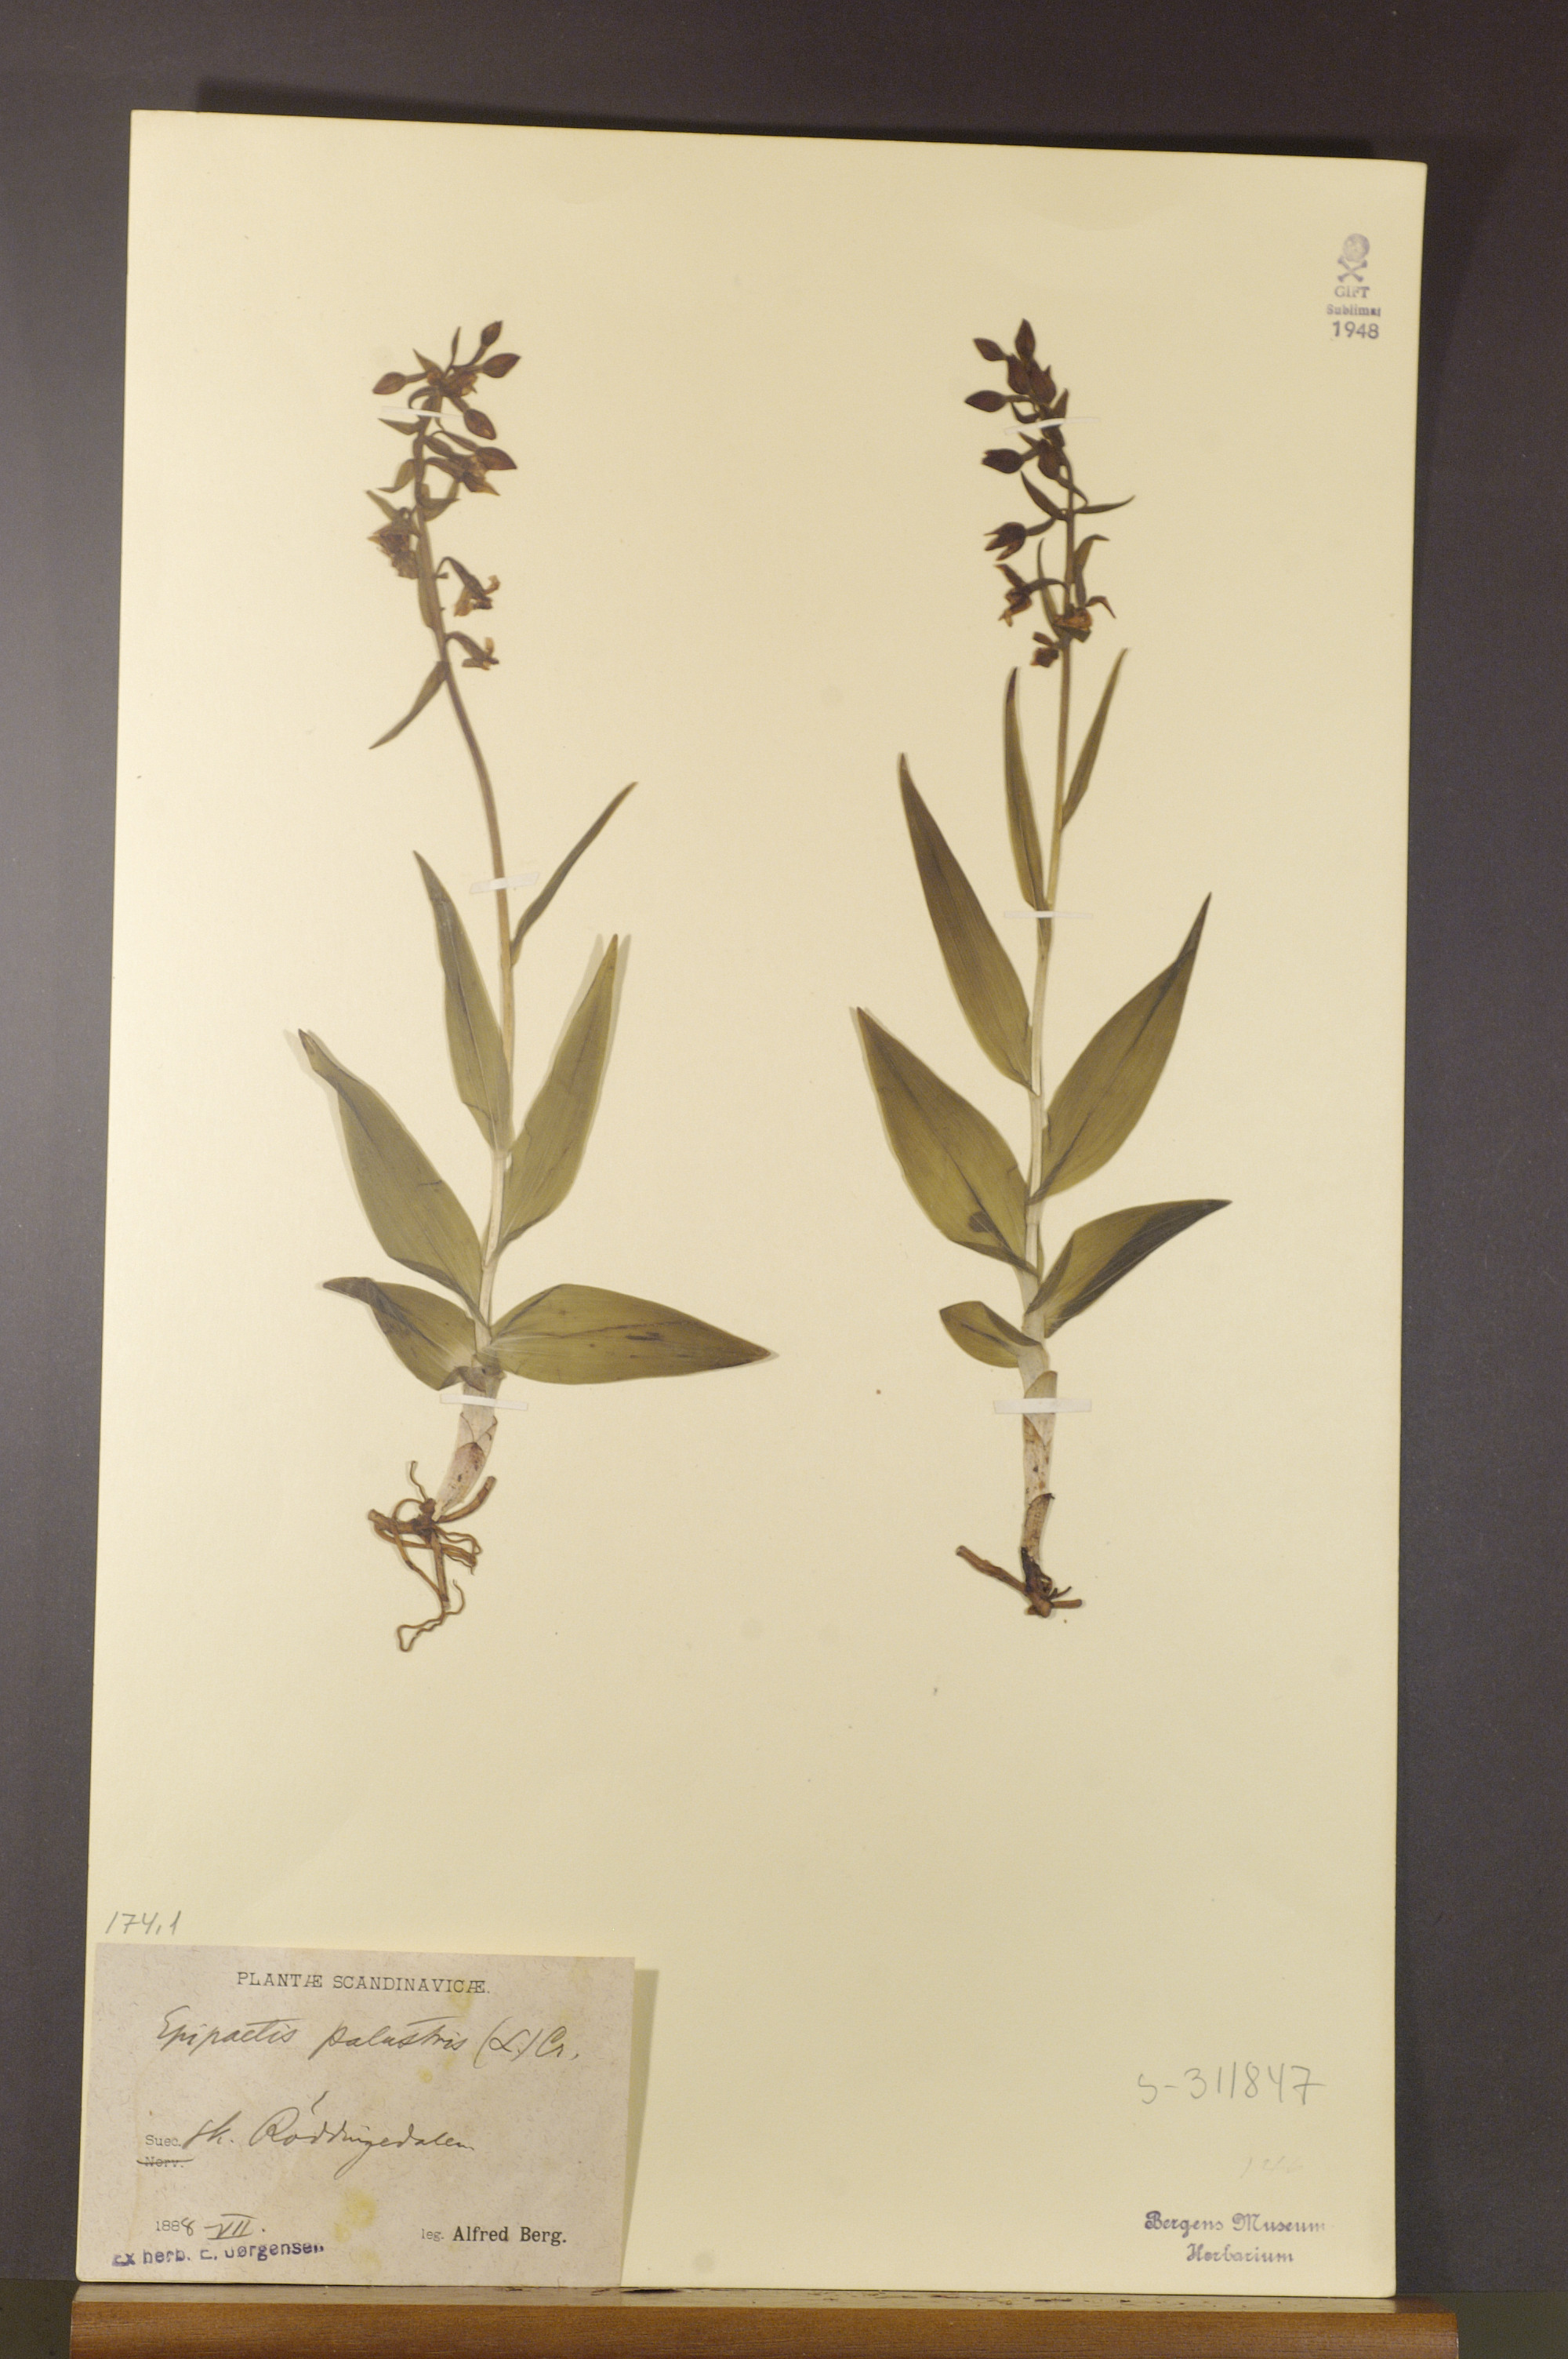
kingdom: Plantae
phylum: Tracheophyta
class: Liliopsida
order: Asparagales
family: Orchidaceae
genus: Epipactis
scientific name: Epipactis palustris
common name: Marsh helleborine
